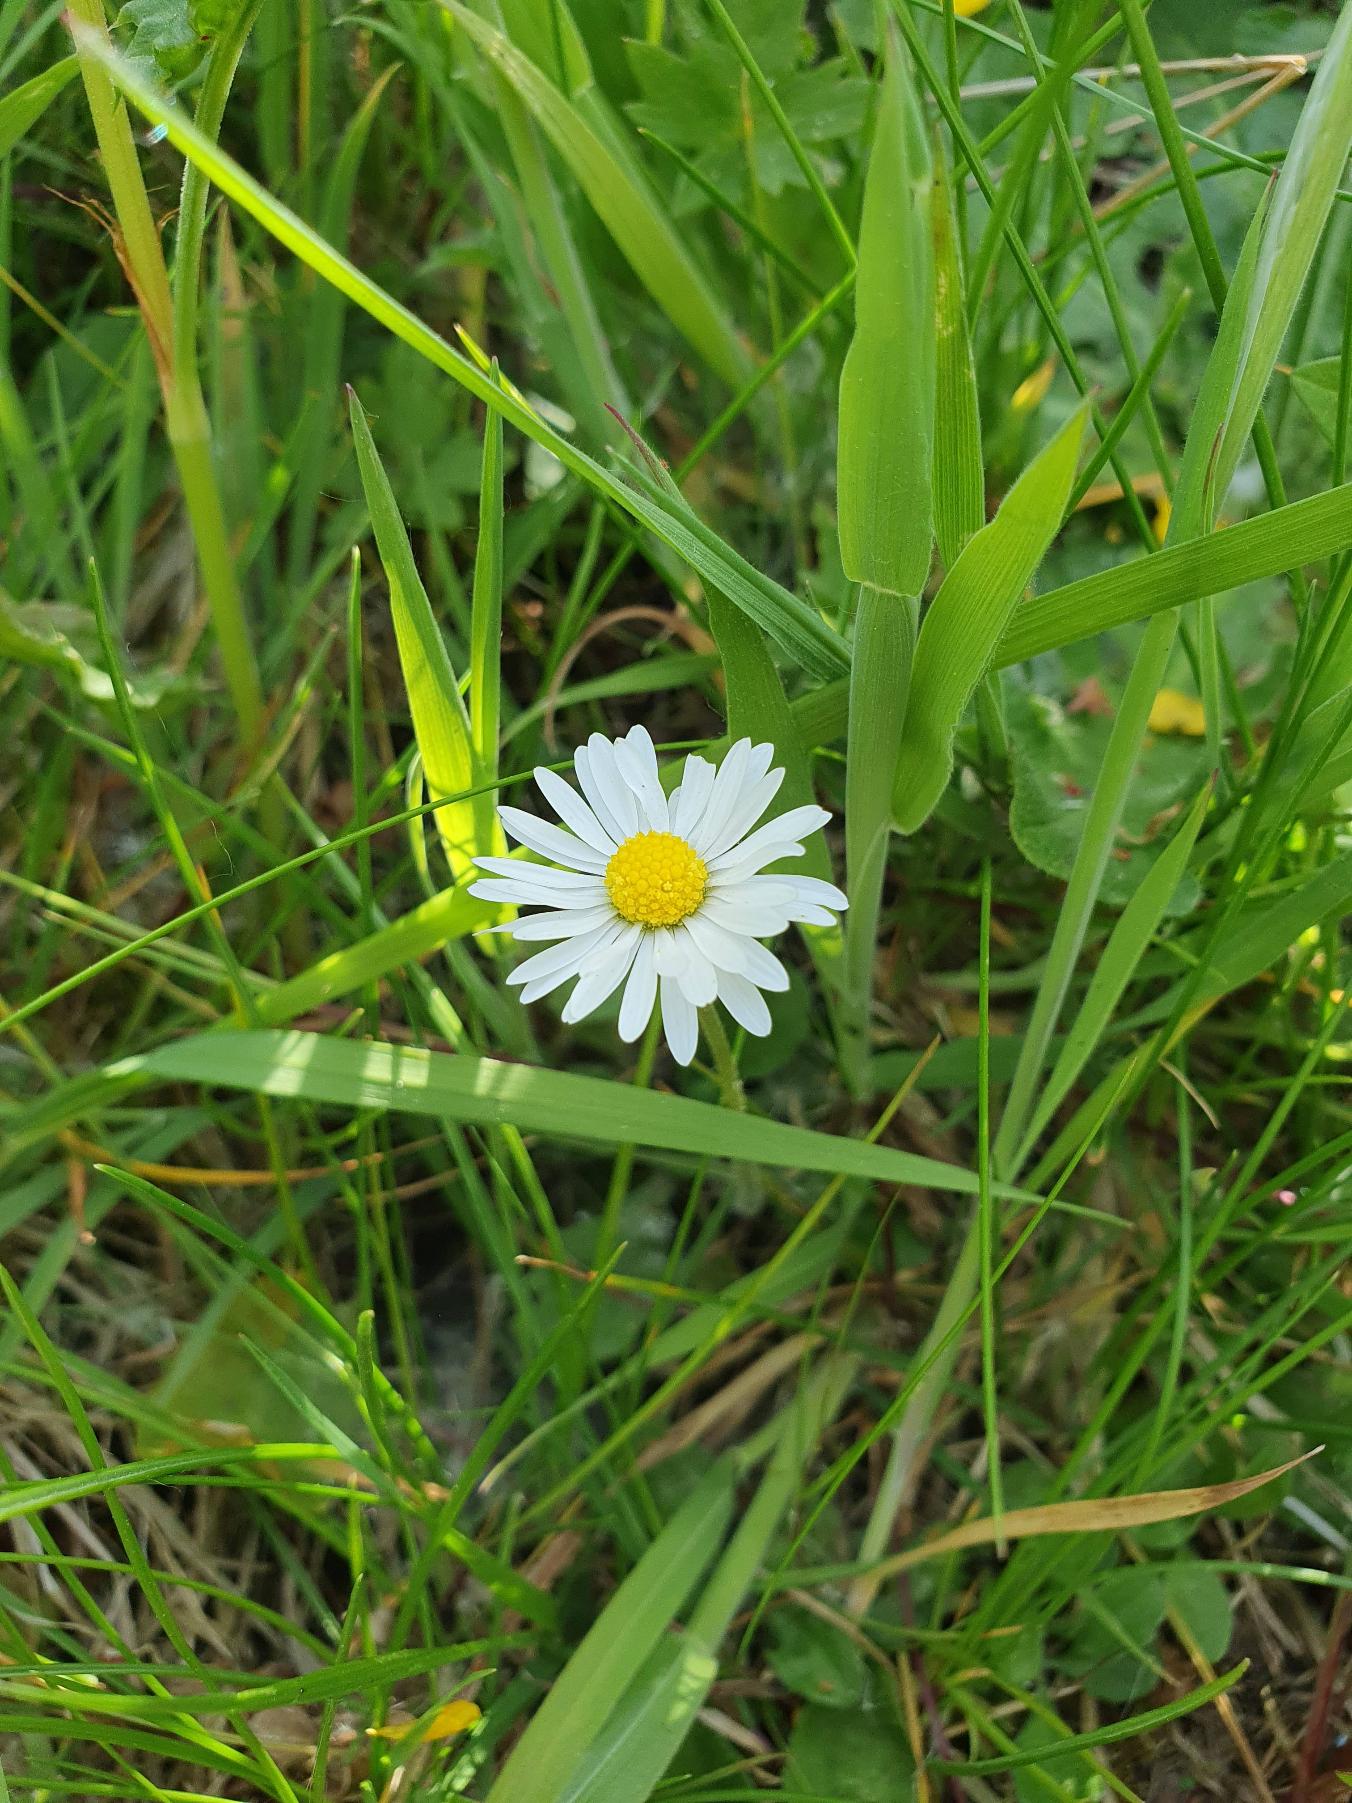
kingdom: Plantae
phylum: Tracheophyta
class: Magnoliopsida
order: Asterales
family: Asteraceae
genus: Bellis
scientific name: Bellis perennis
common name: Tusindfryd
